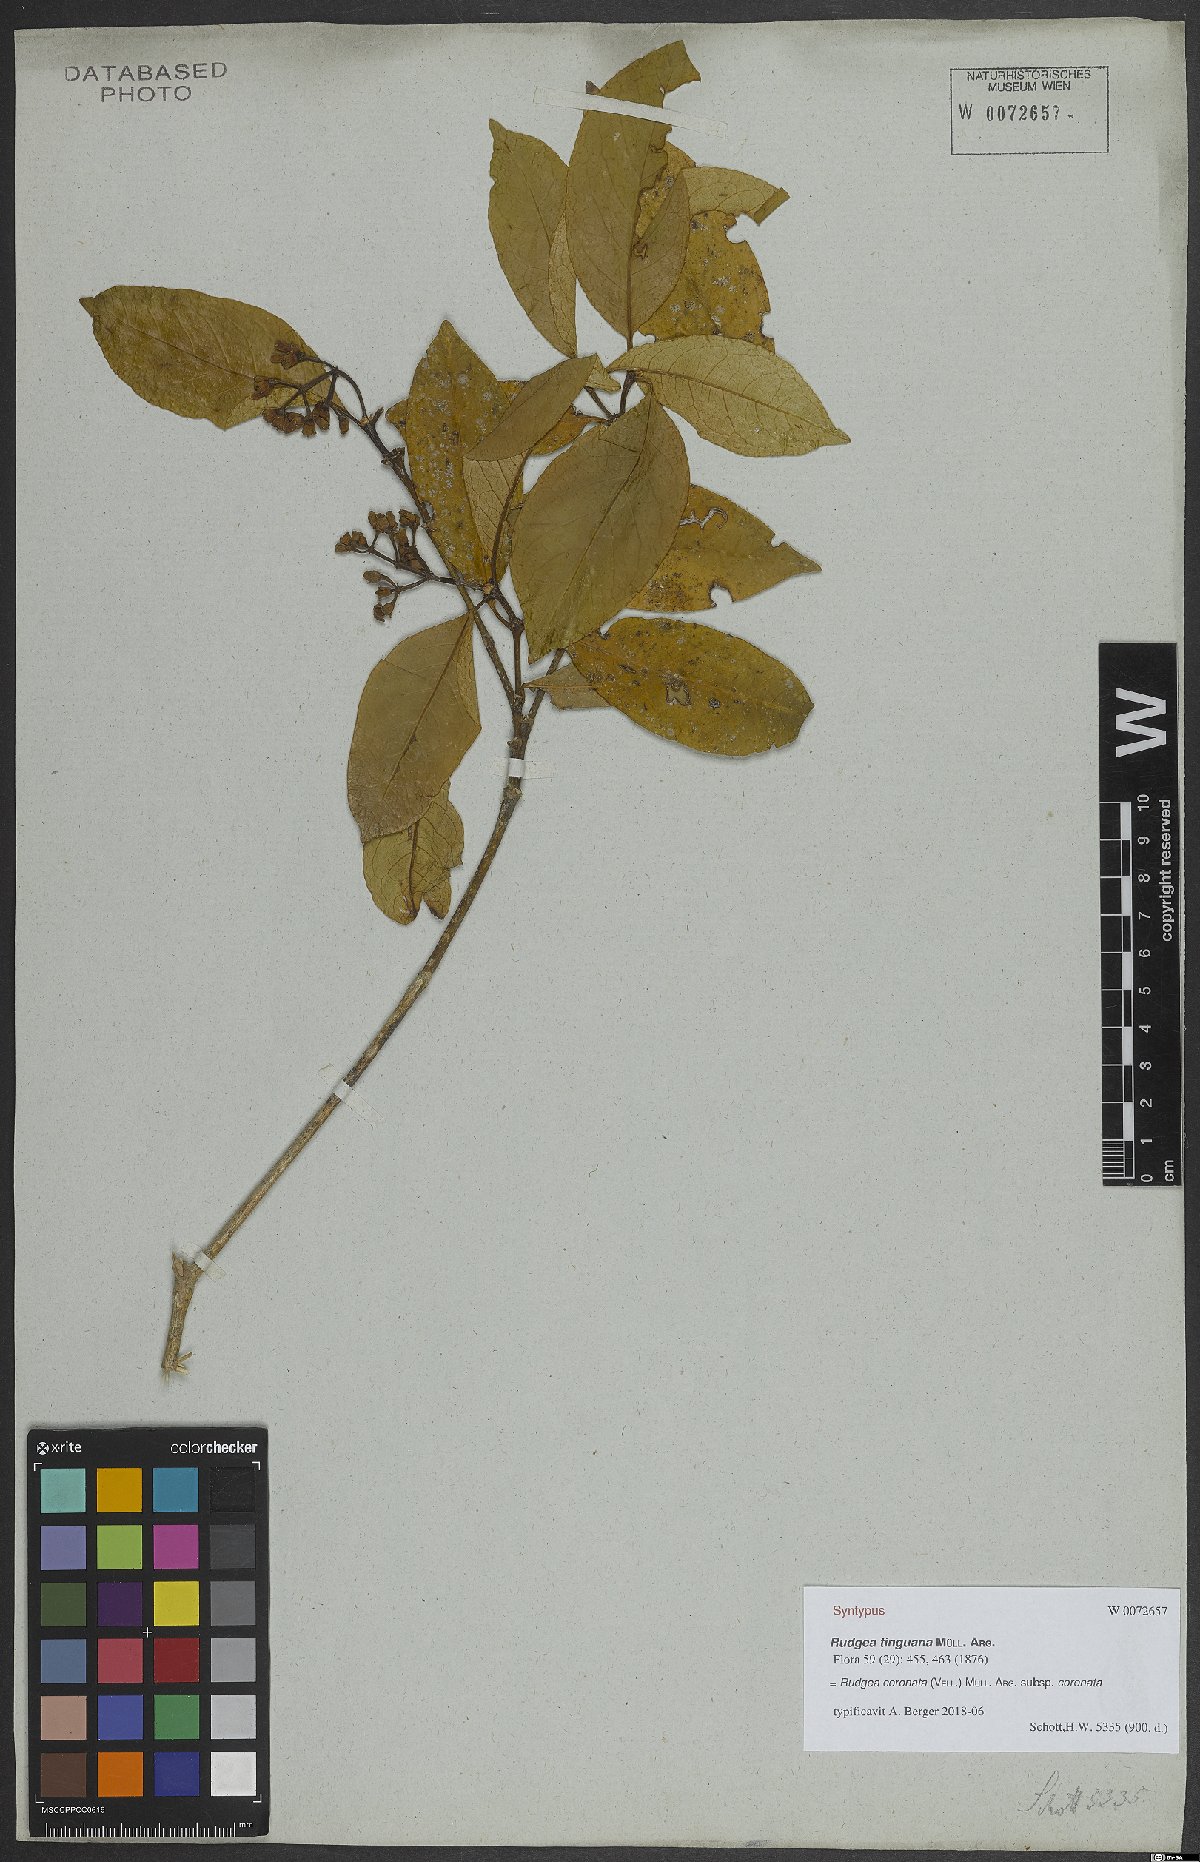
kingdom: Plantae
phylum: Tracheophyta
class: Magnoliopsida
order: Gentianales
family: Rubiaceae
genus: Palicourea
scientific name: Palicourea dichotoma
